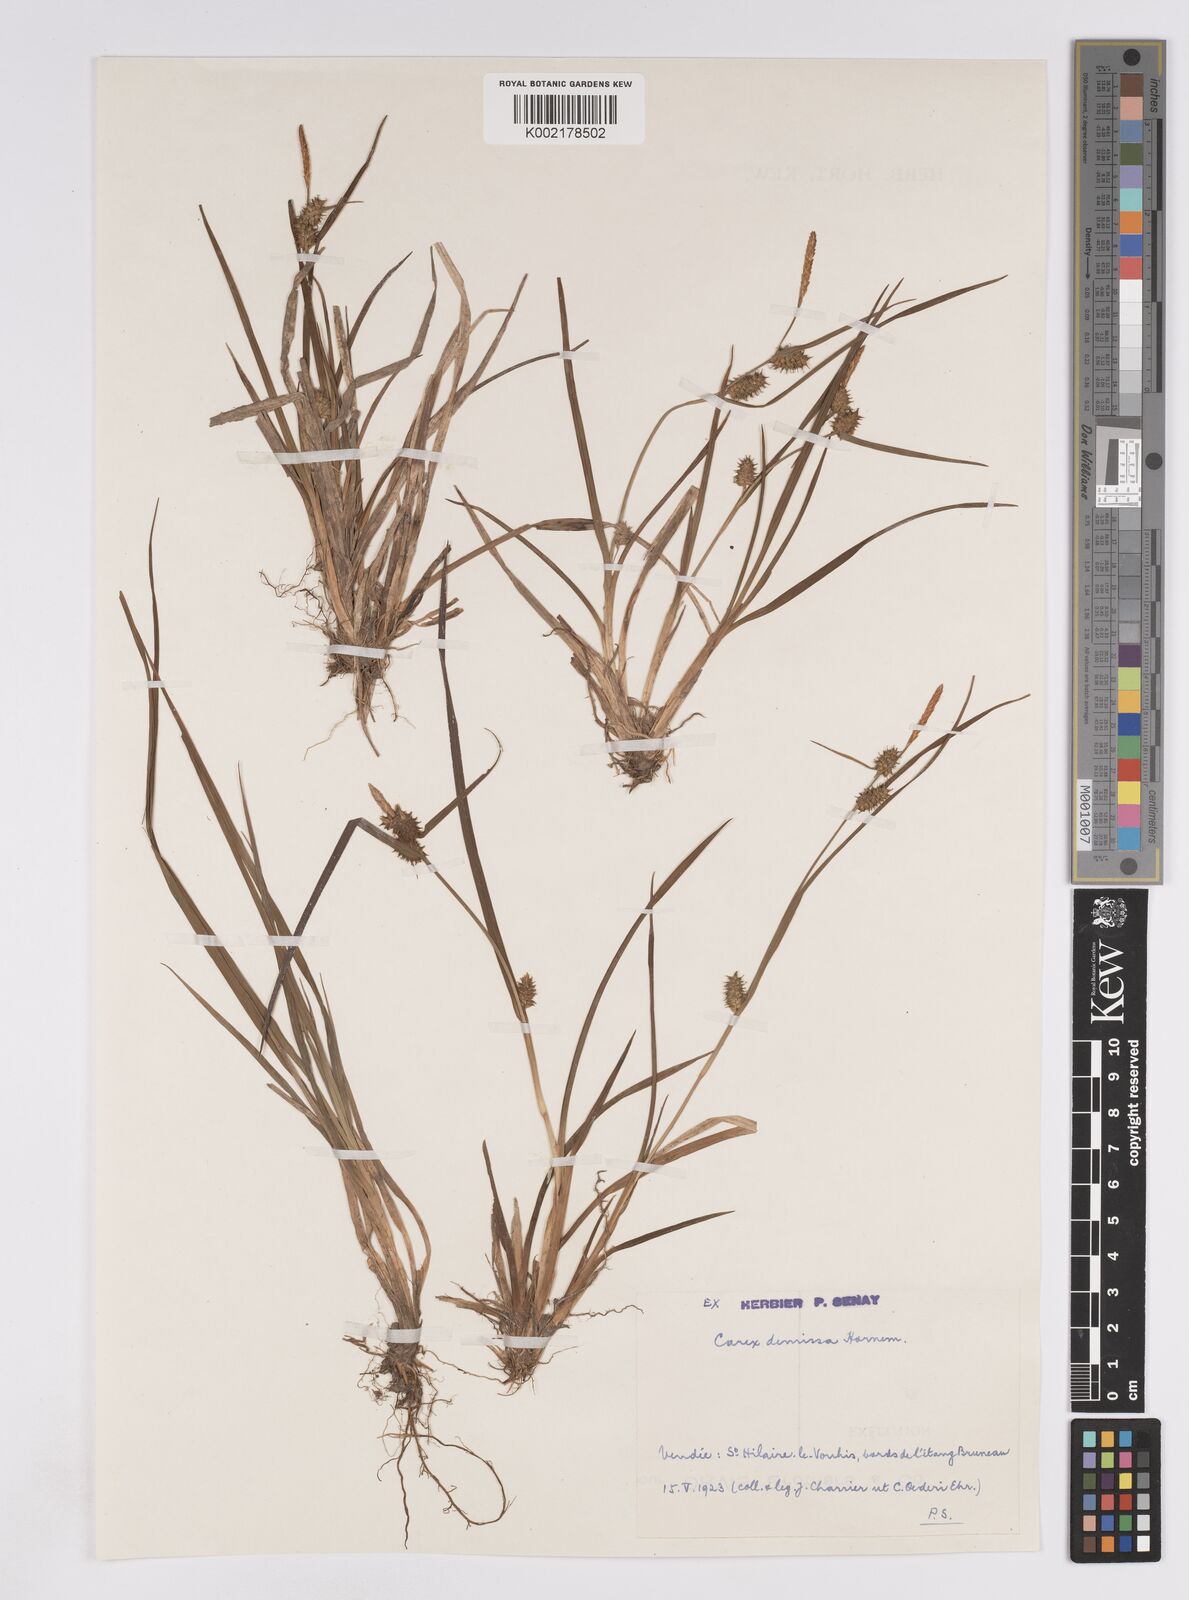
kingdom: Plantae
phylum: Tracheophyta
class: Liliopsida
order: Poales
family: Cyperaceae
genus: Carex
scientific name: Carex demissa
